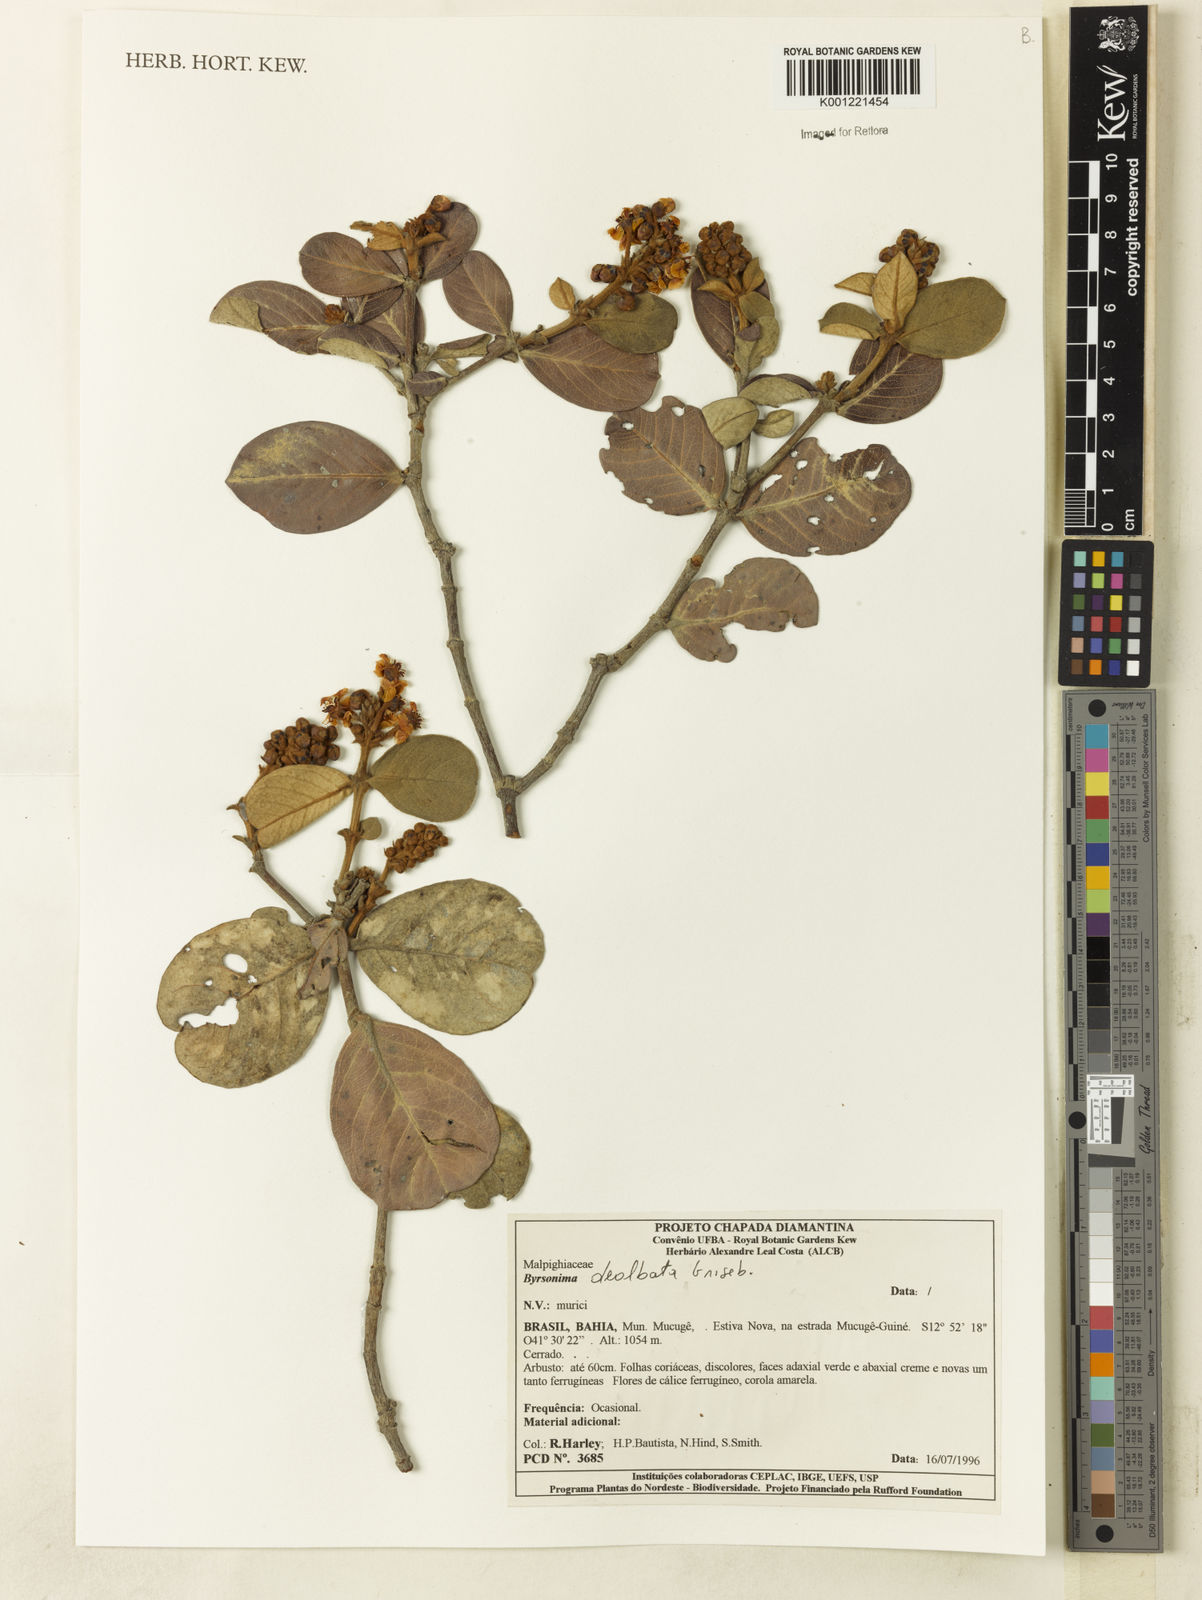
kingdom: Plantae
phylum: Tracheophyta
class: Magnoliopsida
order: Malpighiales
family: Malpighiaceae
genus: Byrsonima
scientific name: Byrsonima dealbata
